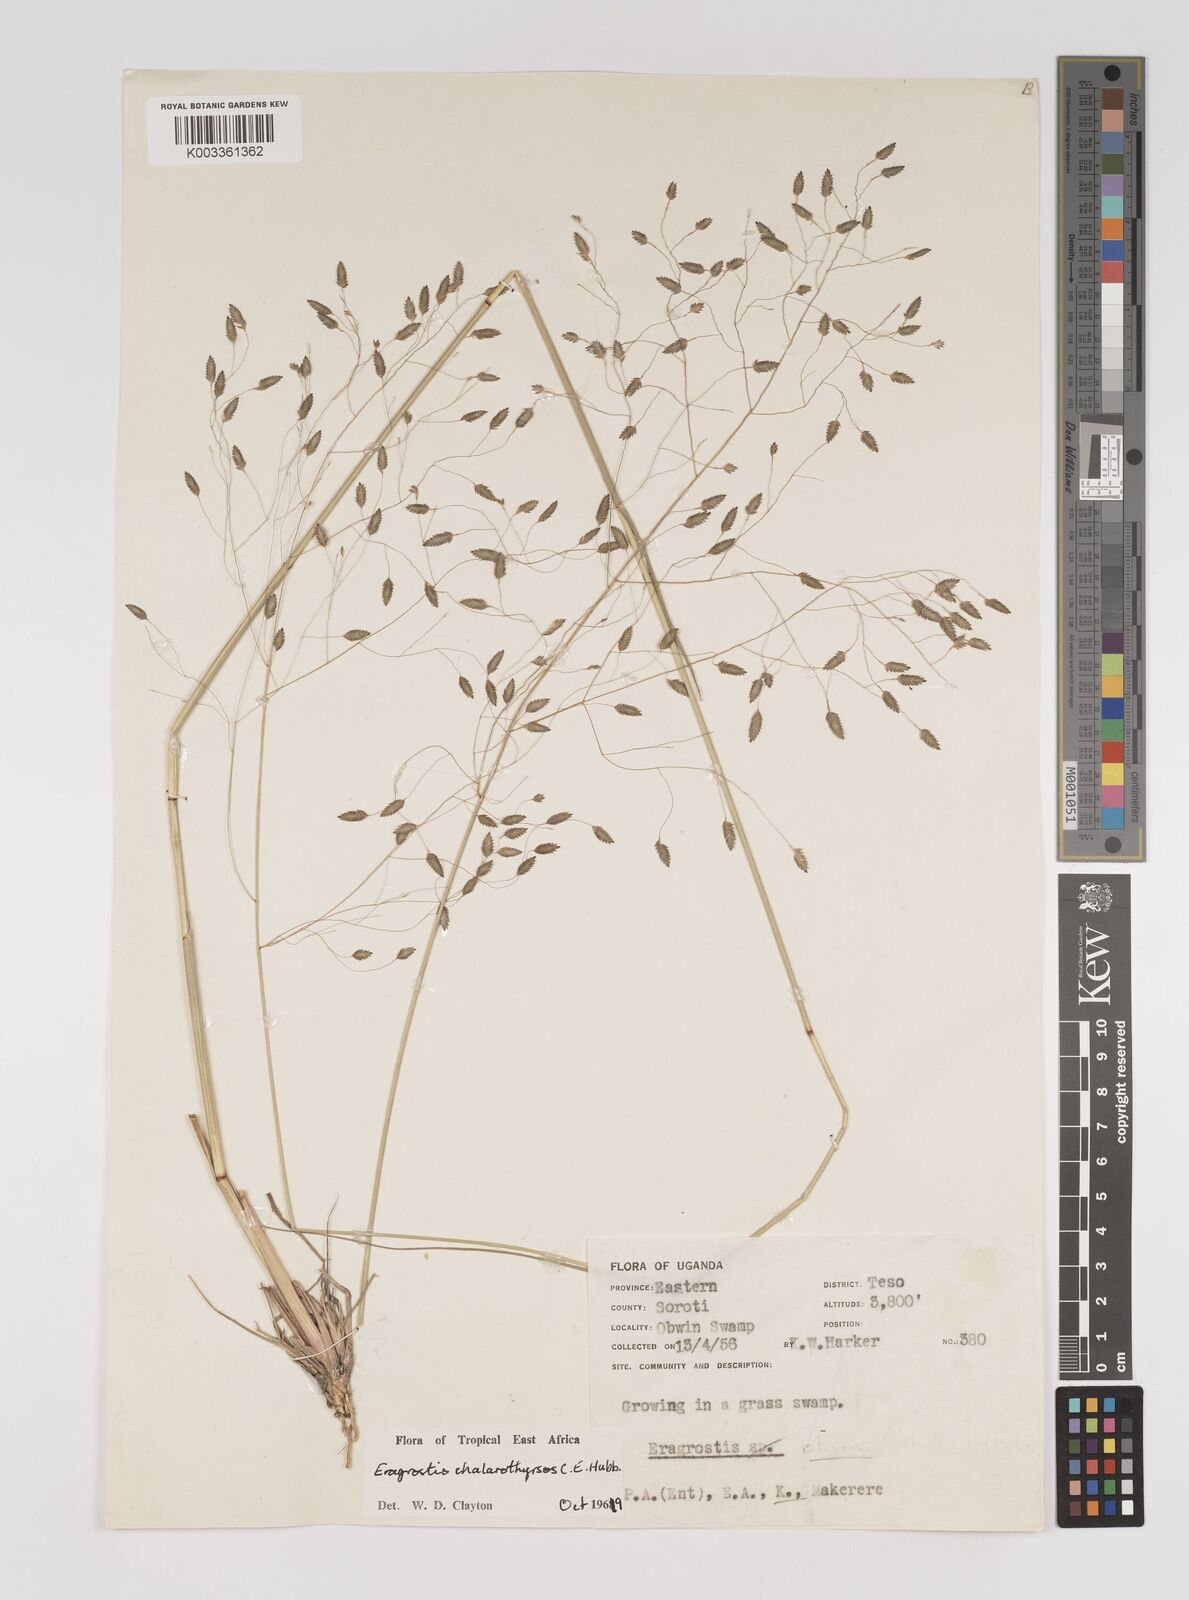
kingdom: Plantae
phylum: Tracheophyta
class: Liliopsida
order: Poales
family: Poaceae
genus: Eragrostis
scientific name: Eragrostis chalarothyrsos
